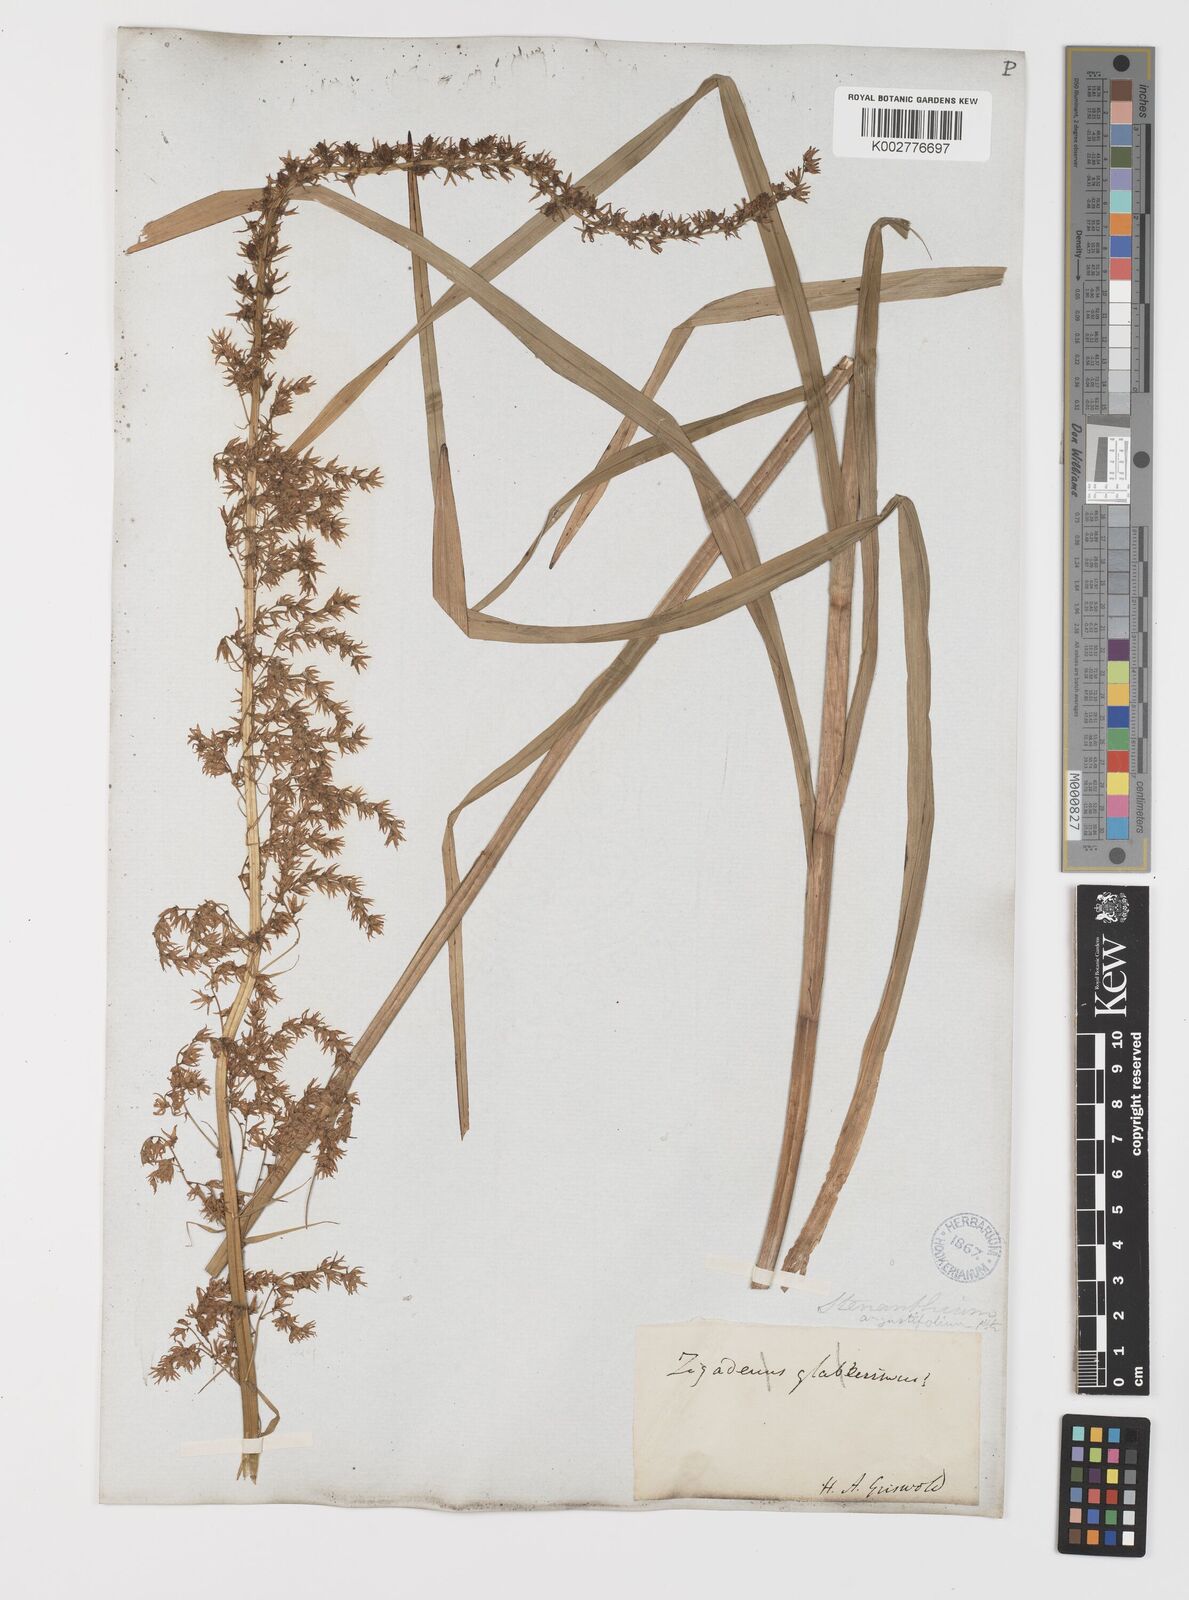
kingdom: Plantae
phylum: Tracheophyta
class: Liliopsida
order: Liliales
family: Melanthiaceae
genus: Stenanthium
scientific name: Stenanthium gramineum
